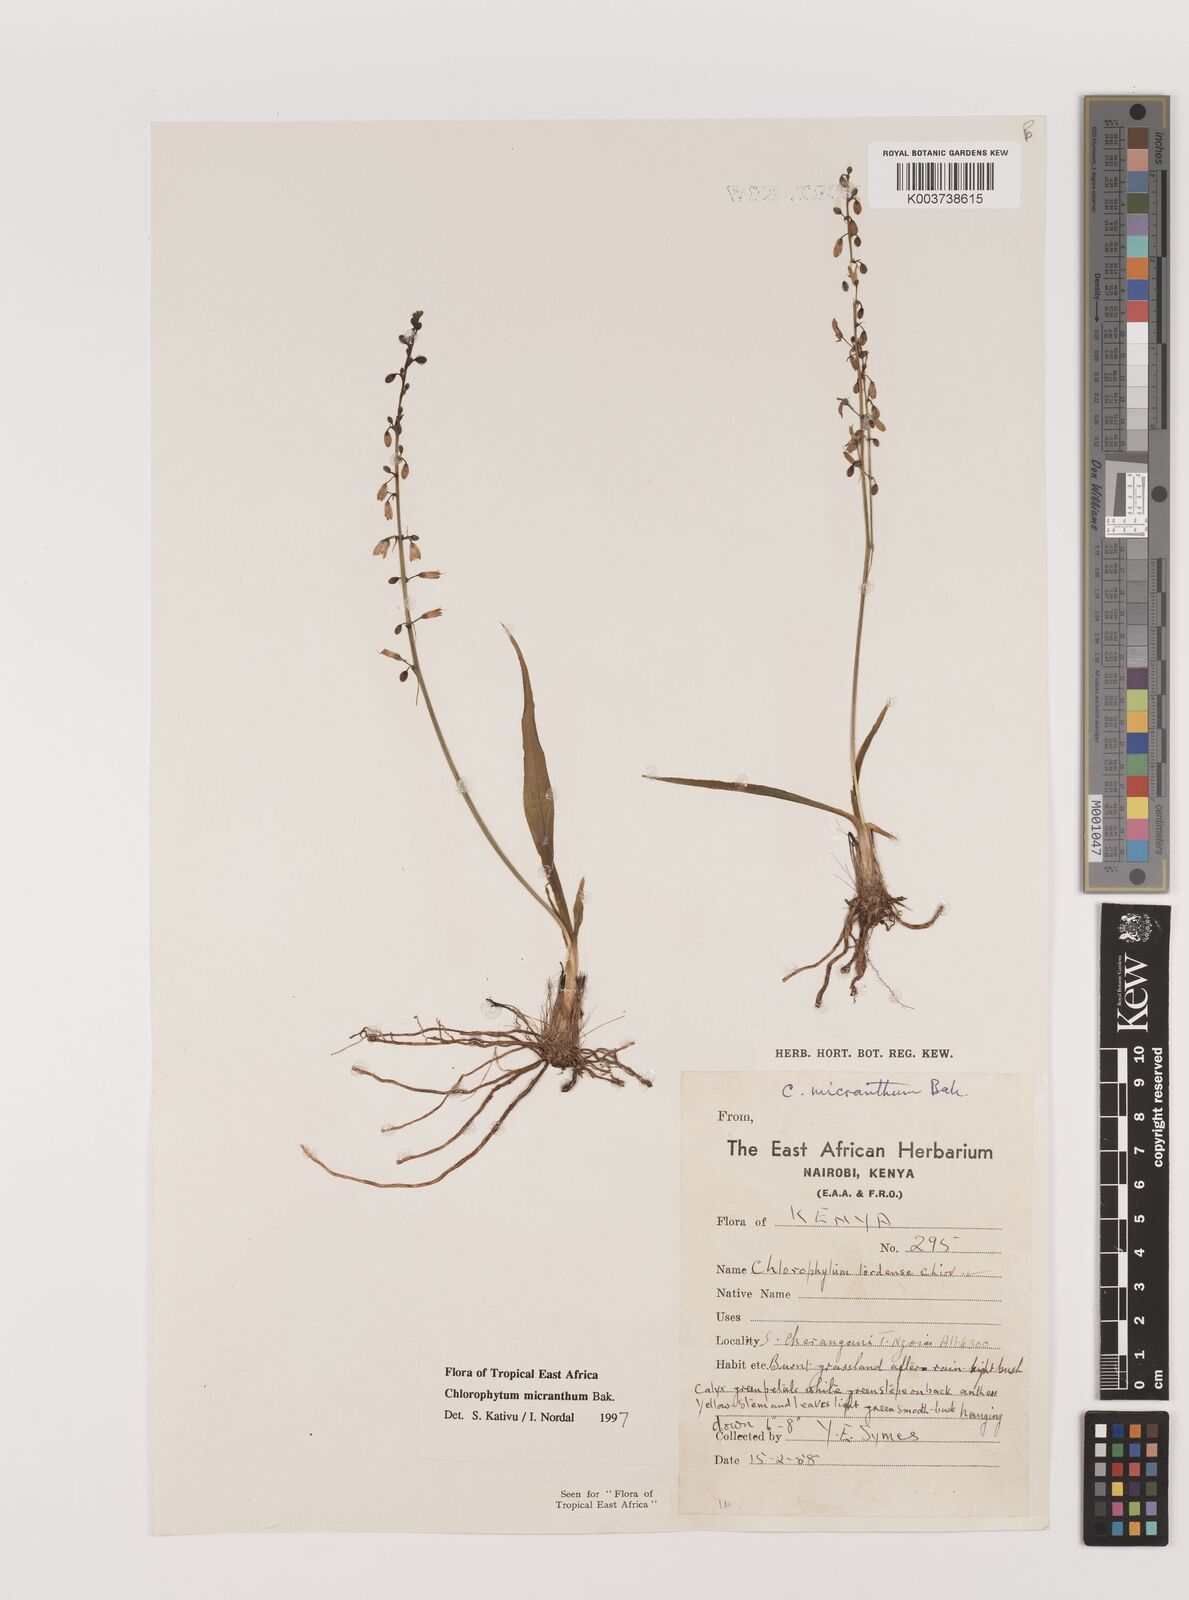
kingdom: Plantae
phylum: Tracheophyta
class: Liliopsida
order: Asparagales
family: Asparagaceae
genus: Chlorophytum
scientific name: Chlorophytum gallabatense
